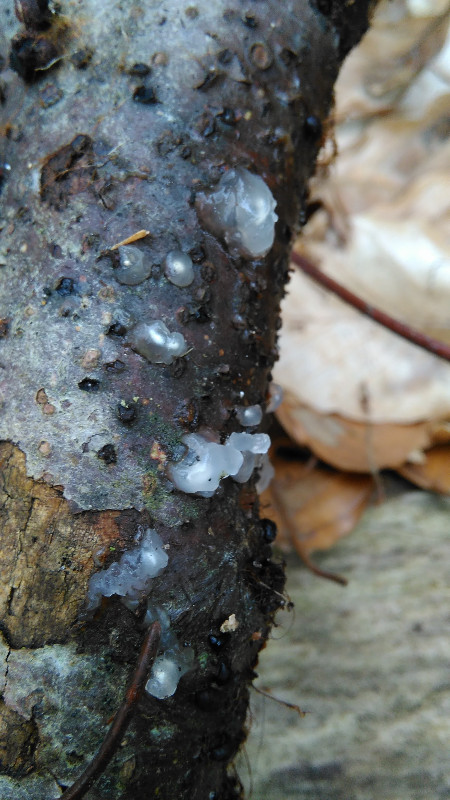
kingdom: Fungi
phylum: Basidiomycota
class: Agaricomycetes
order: Auriculariales
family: Hyaloriaceae
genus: Myxarium
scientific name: Myxarium nucleatum
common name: klar bævretop
